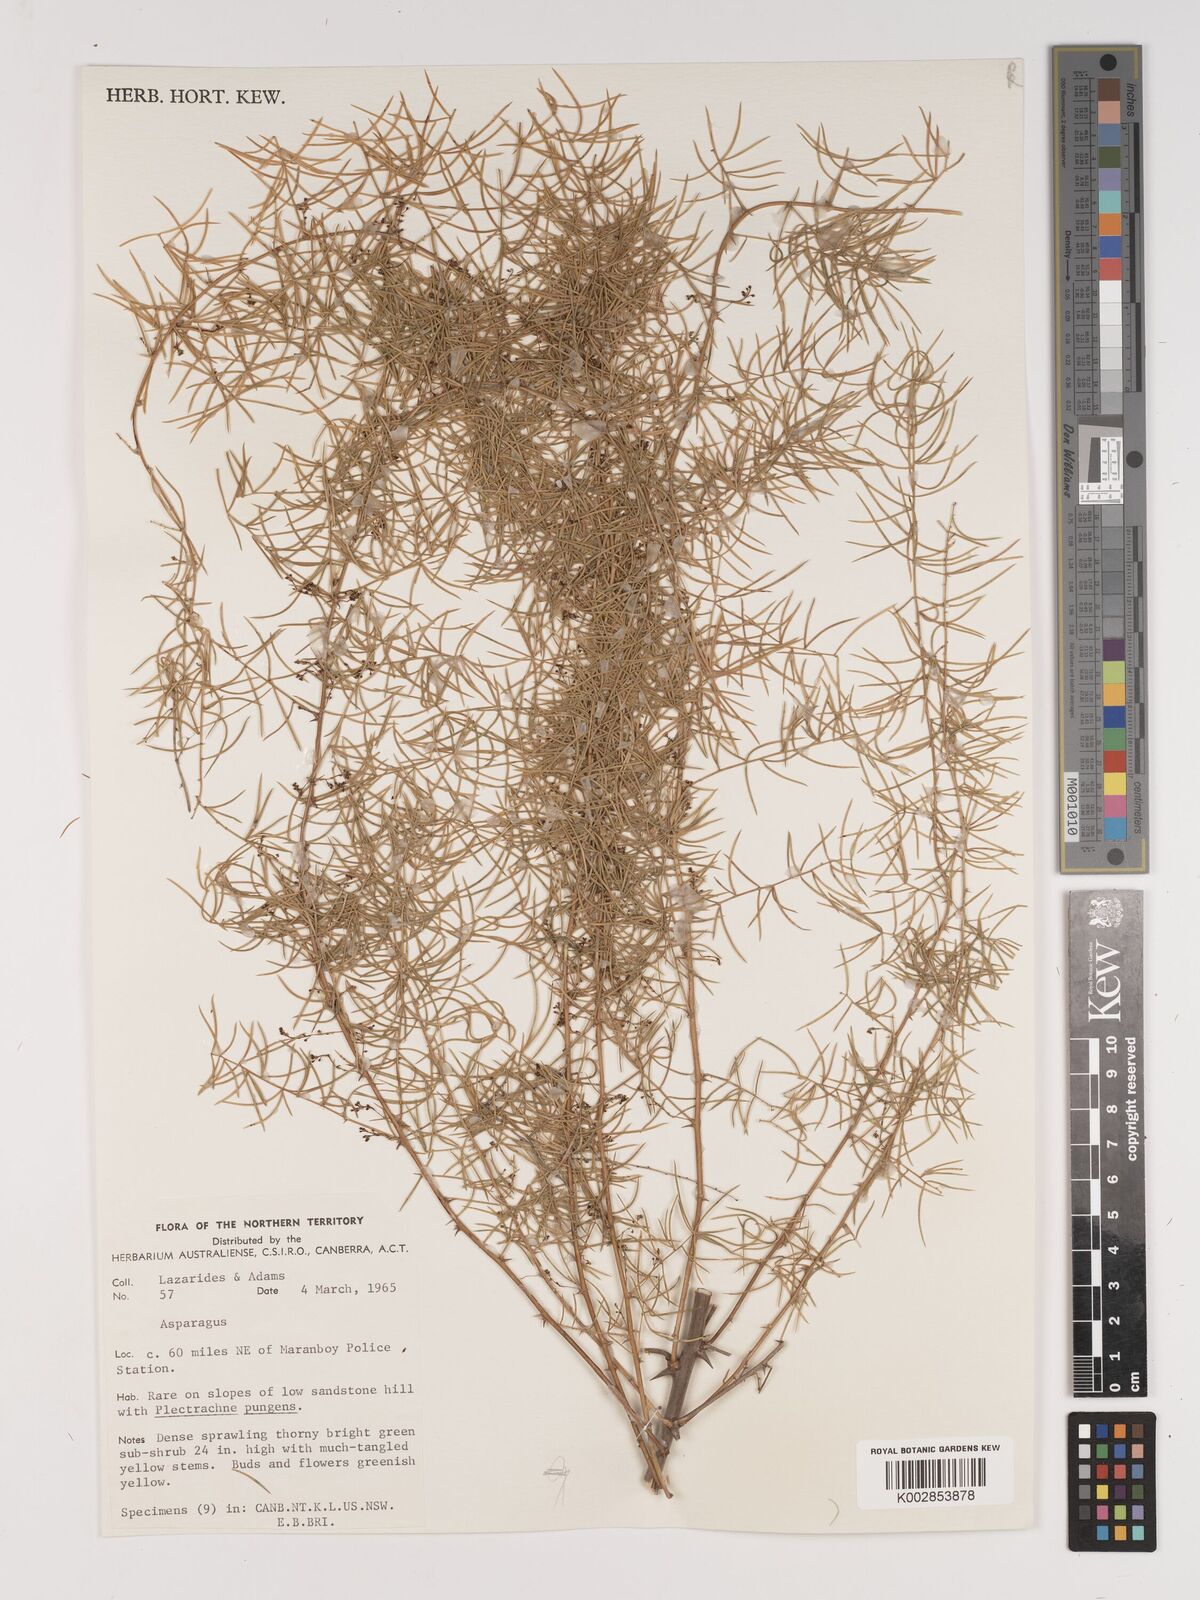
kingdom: Plantae
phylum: Tracheophyta
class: Liliopsida
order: Asparagales
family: Asparagaceae
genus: Asparagus
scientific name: Asparagus
